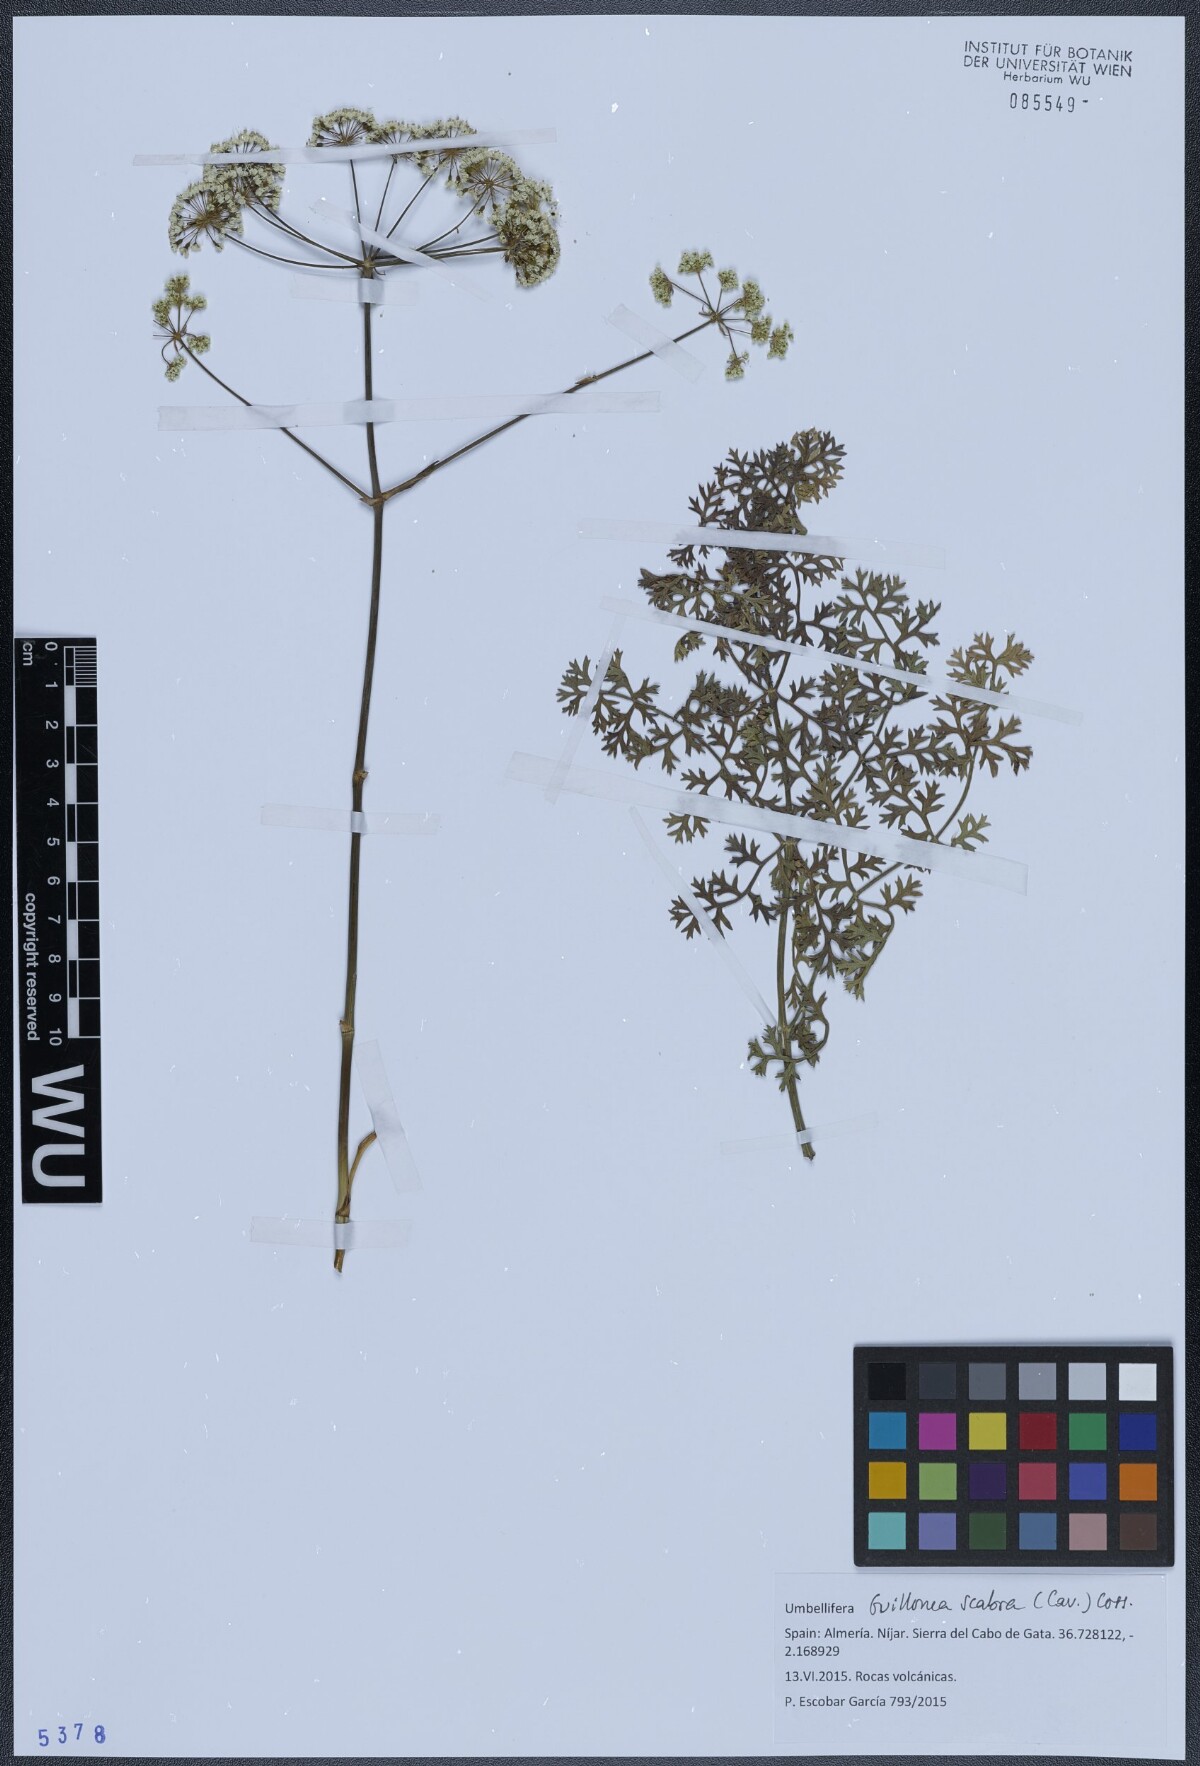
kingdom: Plantae
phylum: Tracheophyta
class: Magnoliopsida
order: Apiales
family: Apiaceae
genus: Thapsia
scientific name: Thapsia scabra
